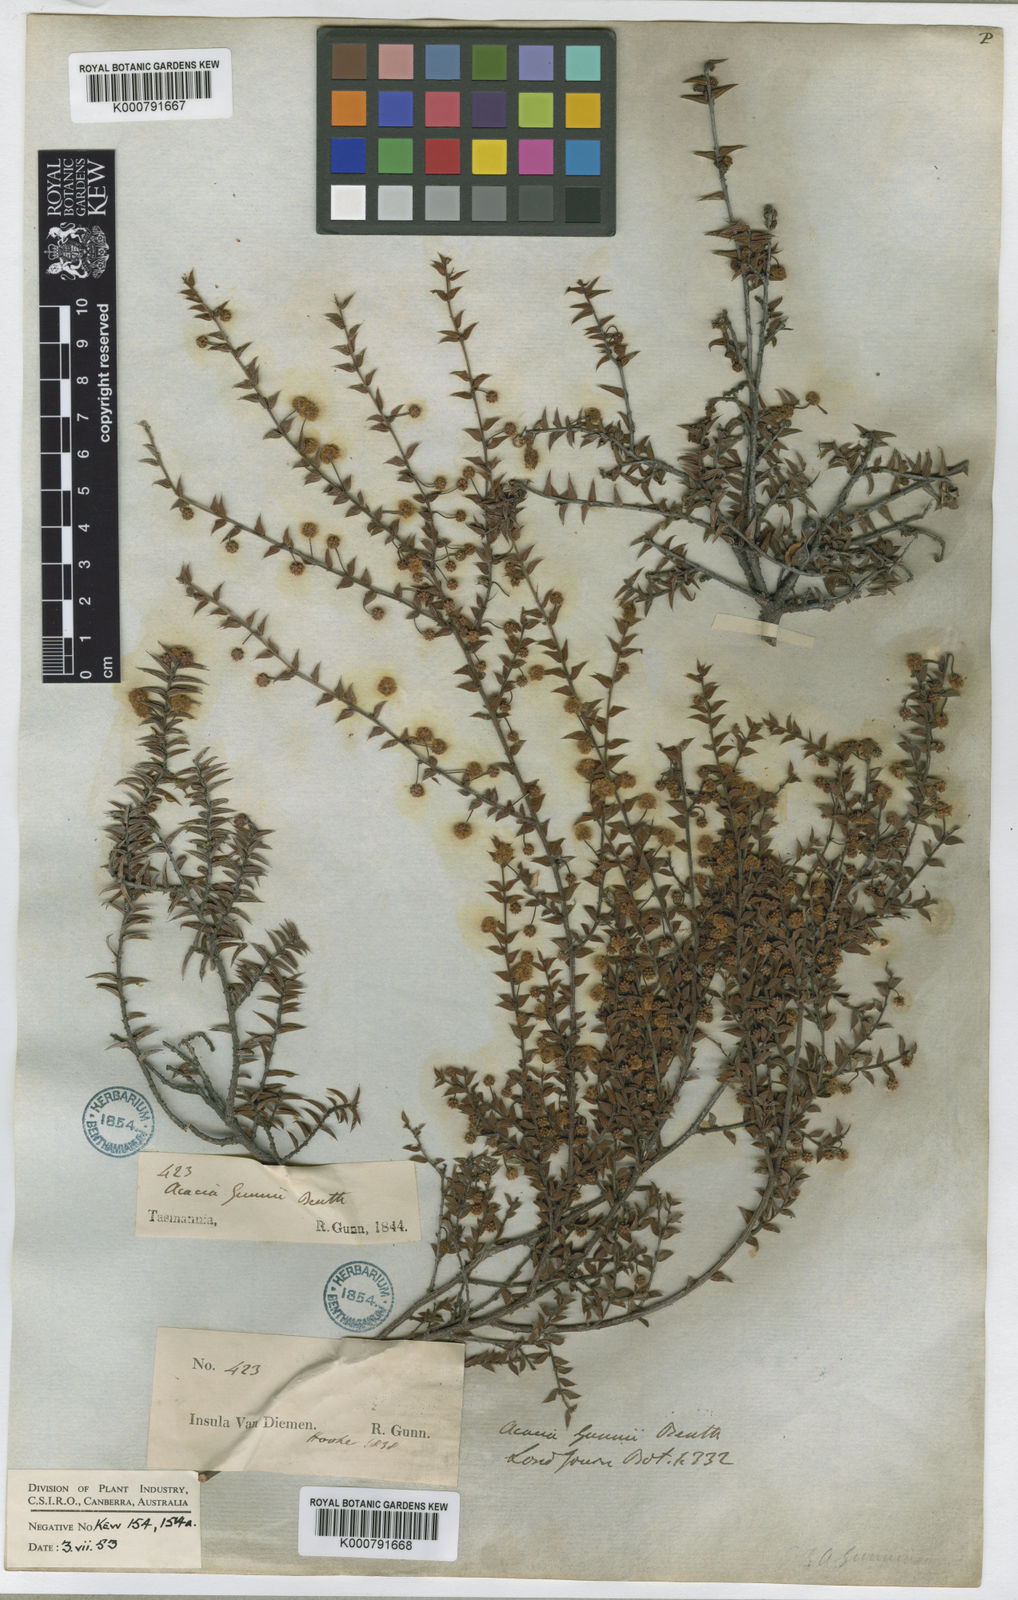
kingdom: Plantae
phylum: Tracheophyta
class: Magnoliopsida
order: Fabales
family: Fabaceae
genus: Acacia
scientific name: Acacia gunnii
